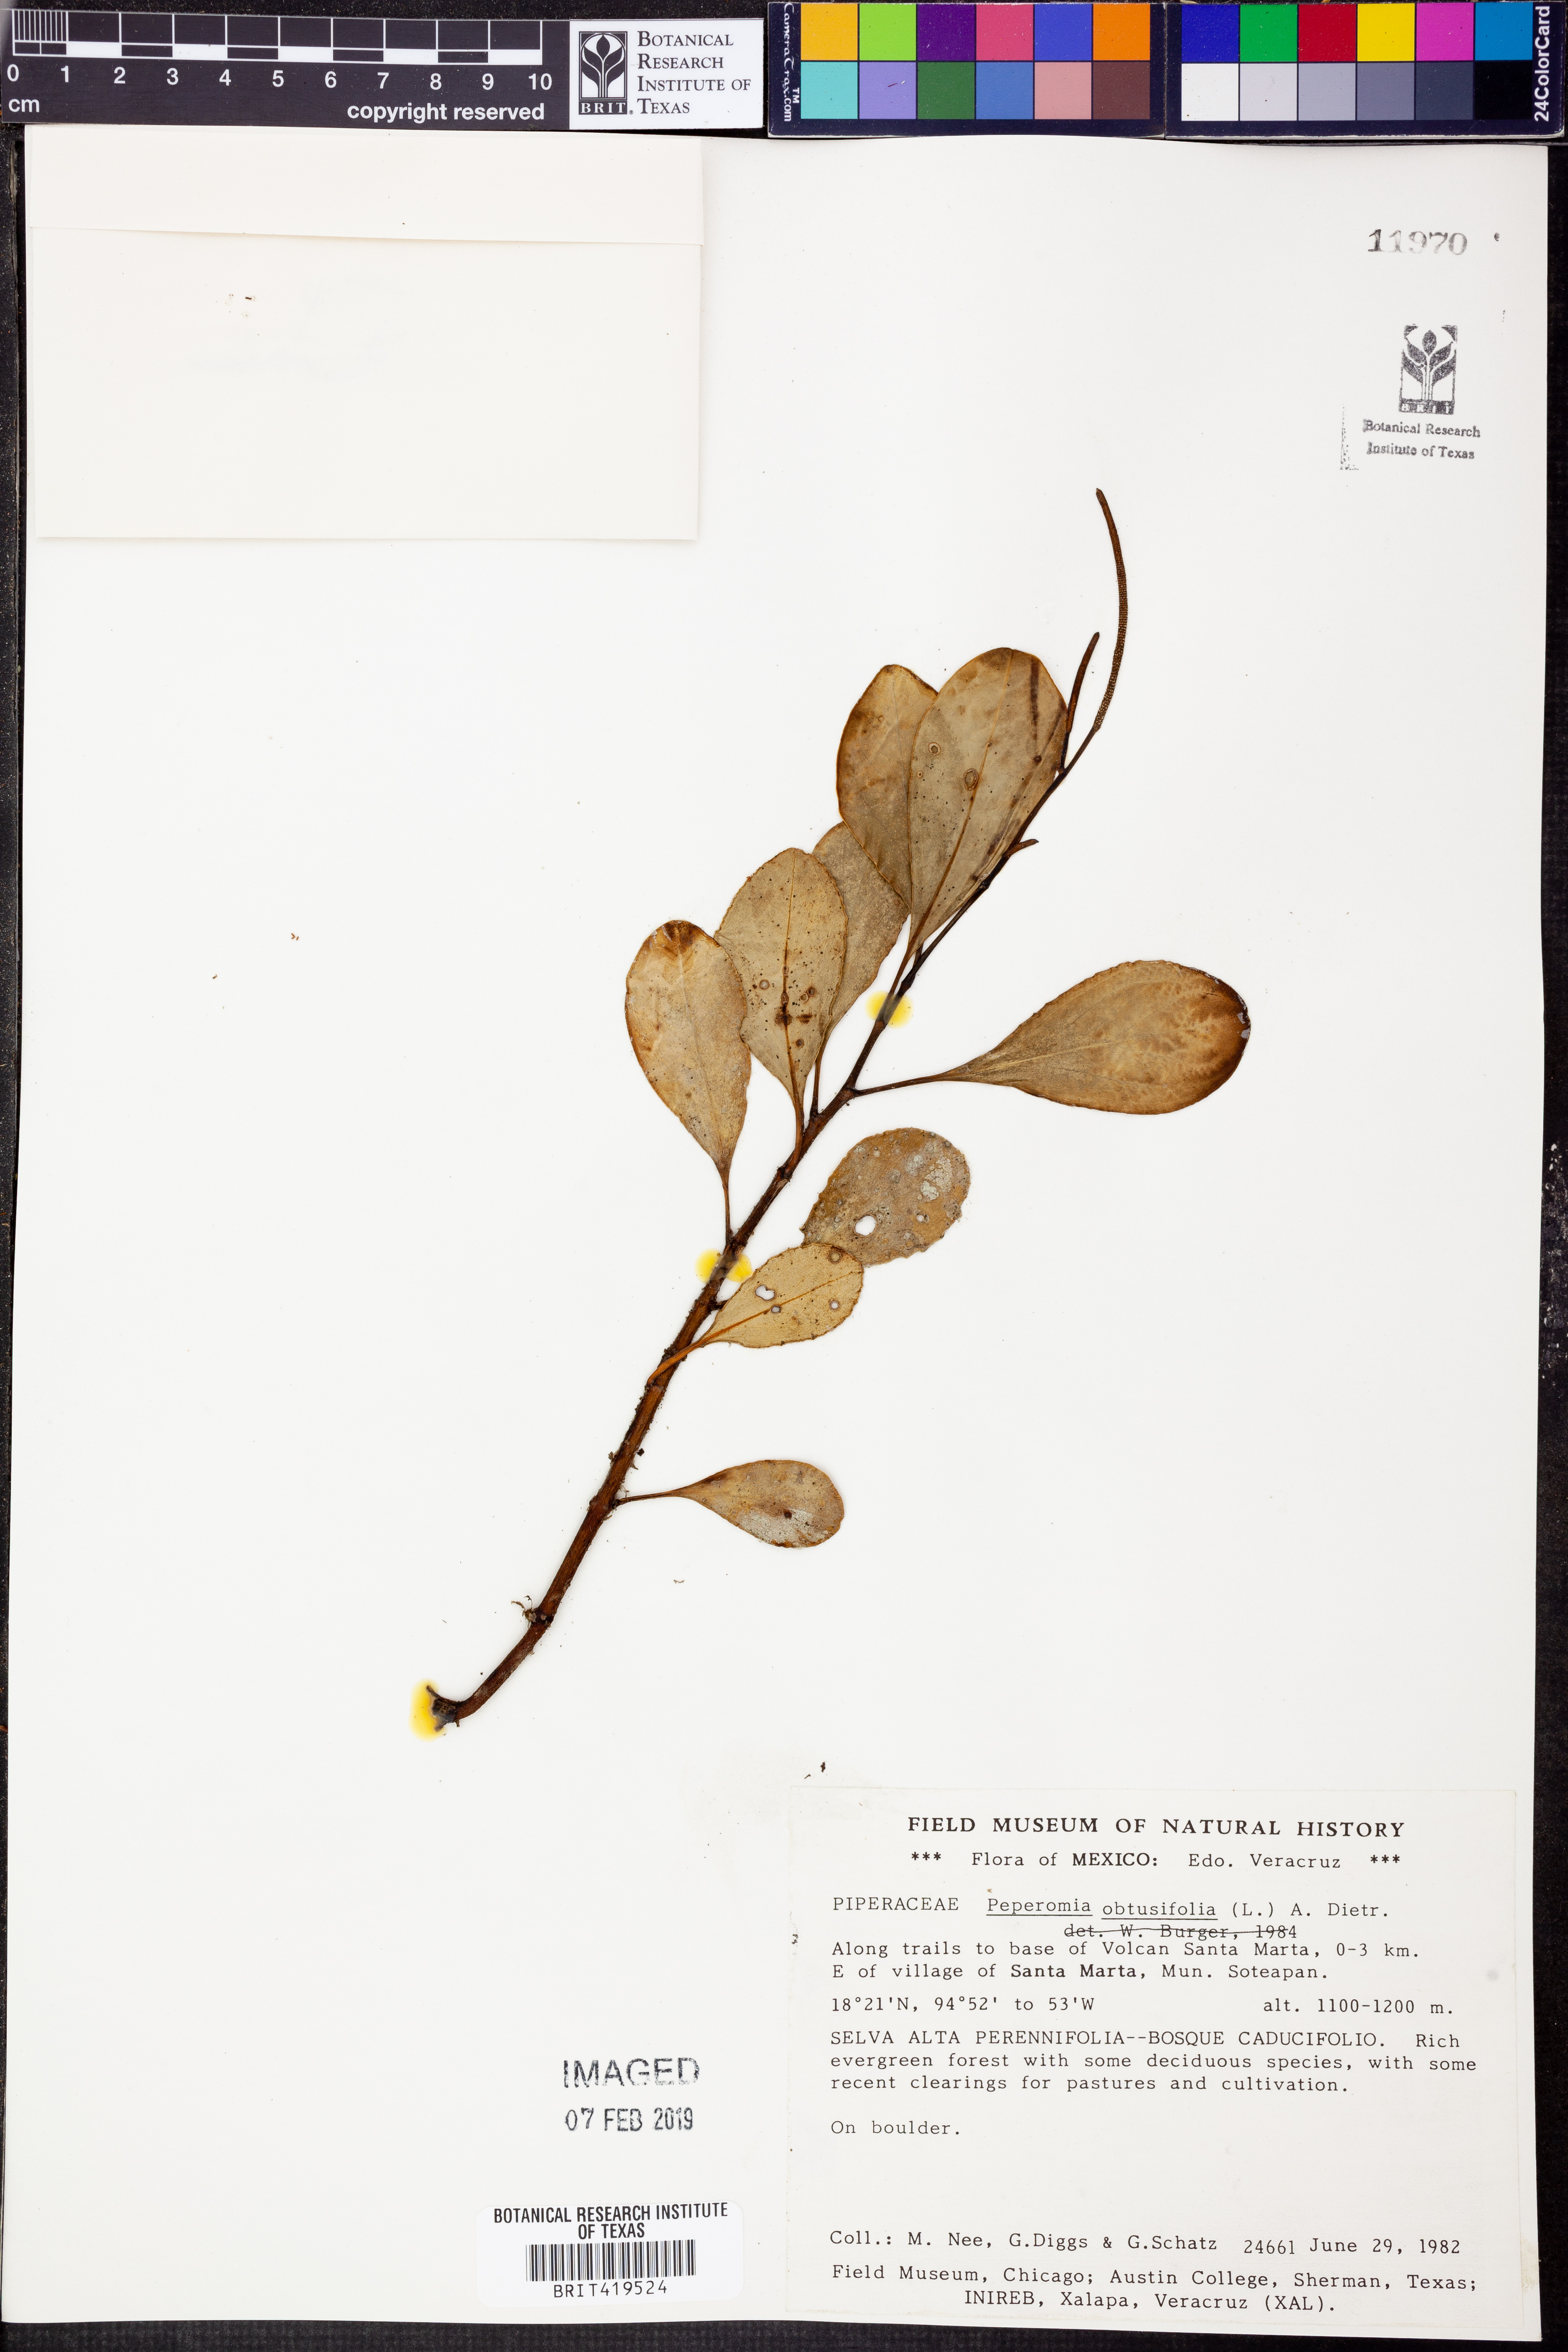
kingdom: Plantae
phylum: Tracheophyta
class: Magnoliopsida
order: Piperales
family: Piperaceae
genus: Peperomia
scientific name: Peperomia obtusifolia
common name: Baby rubberplant
